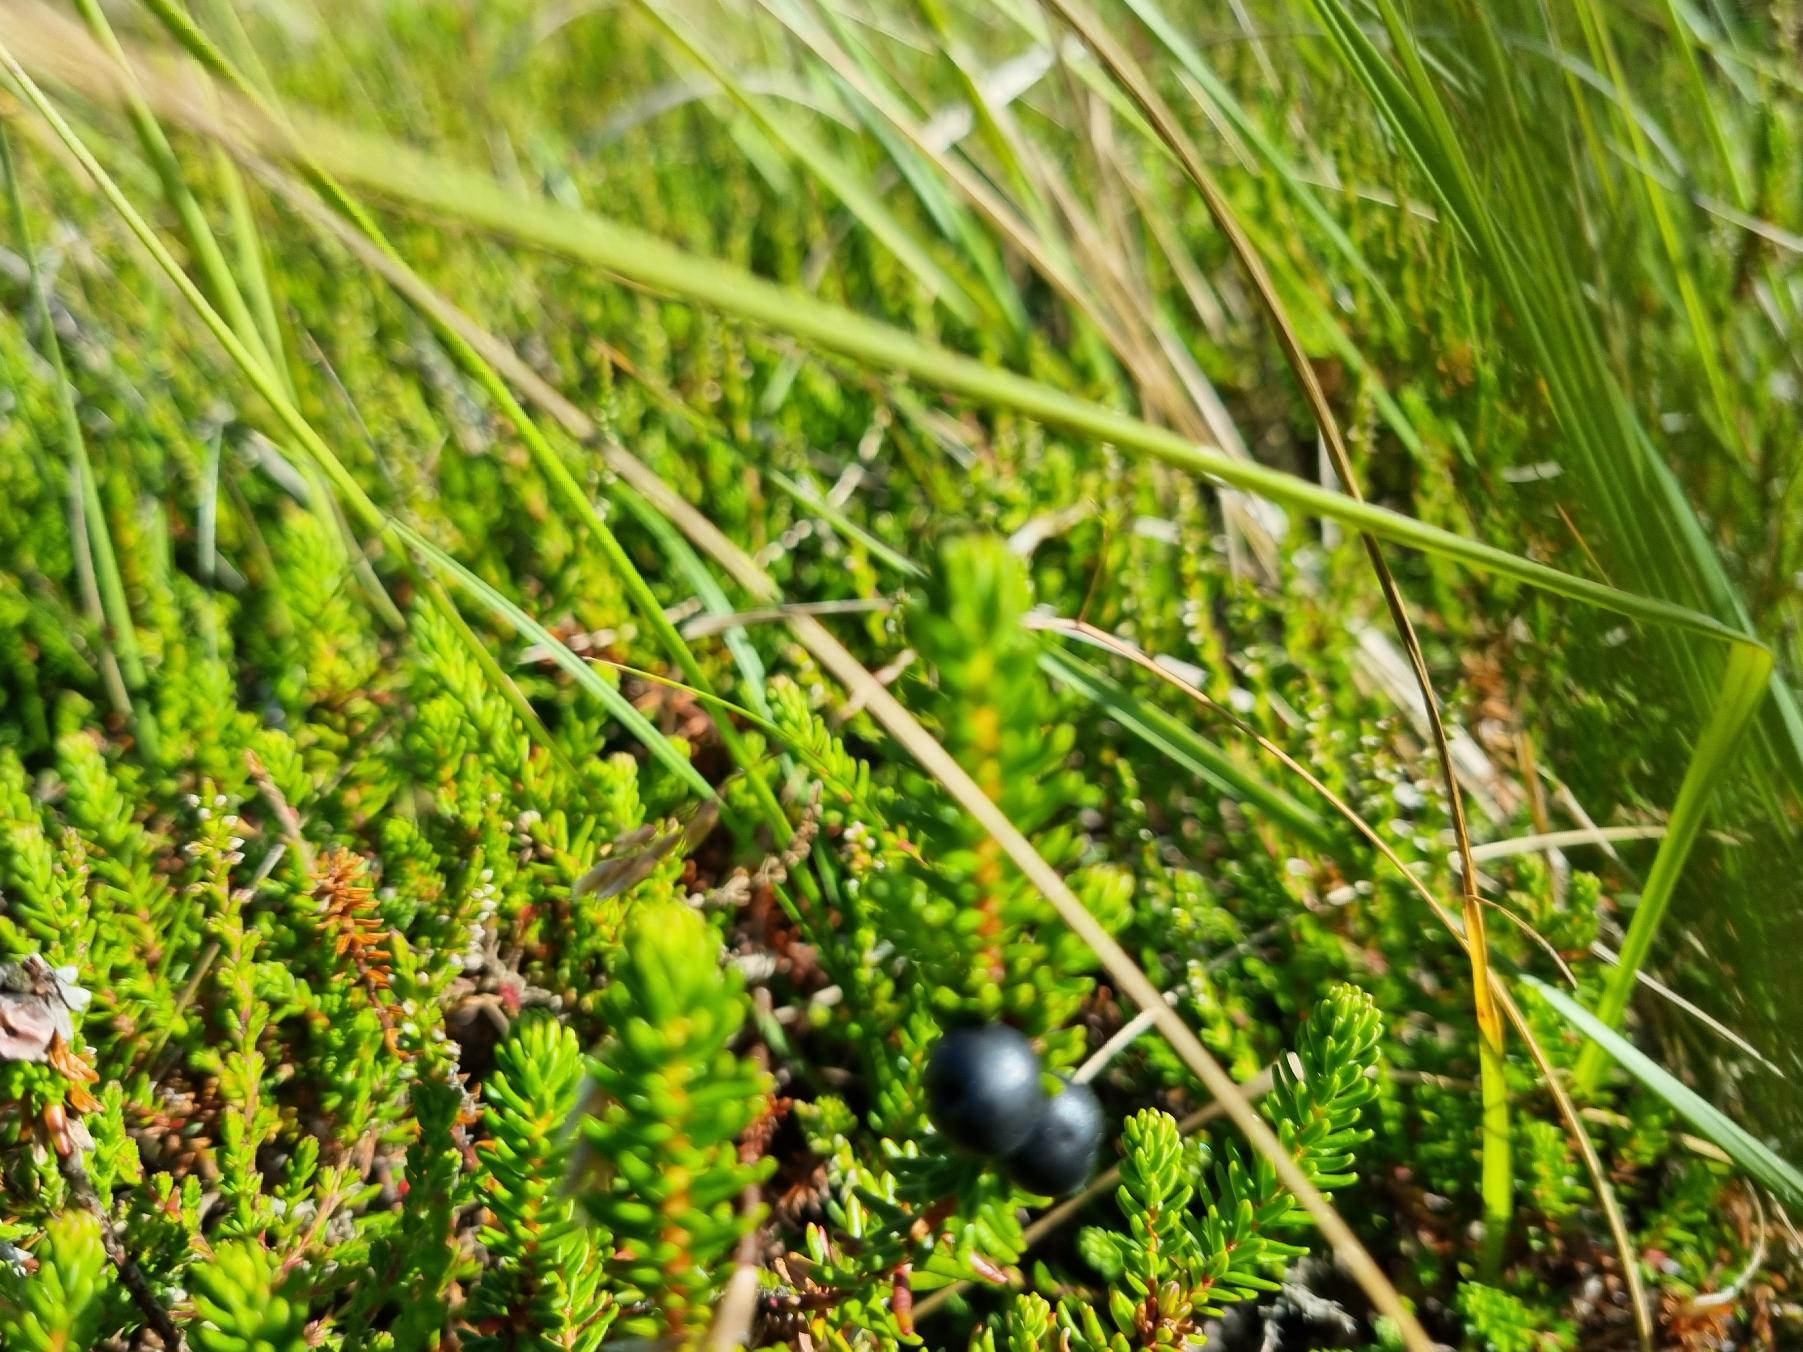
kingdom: Plantae
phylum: Tracheophyta
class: Magnoliopsida
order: Ericales
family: Ericaceae
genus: Empetrum
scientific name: Empetrum nigrum
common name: Revling
